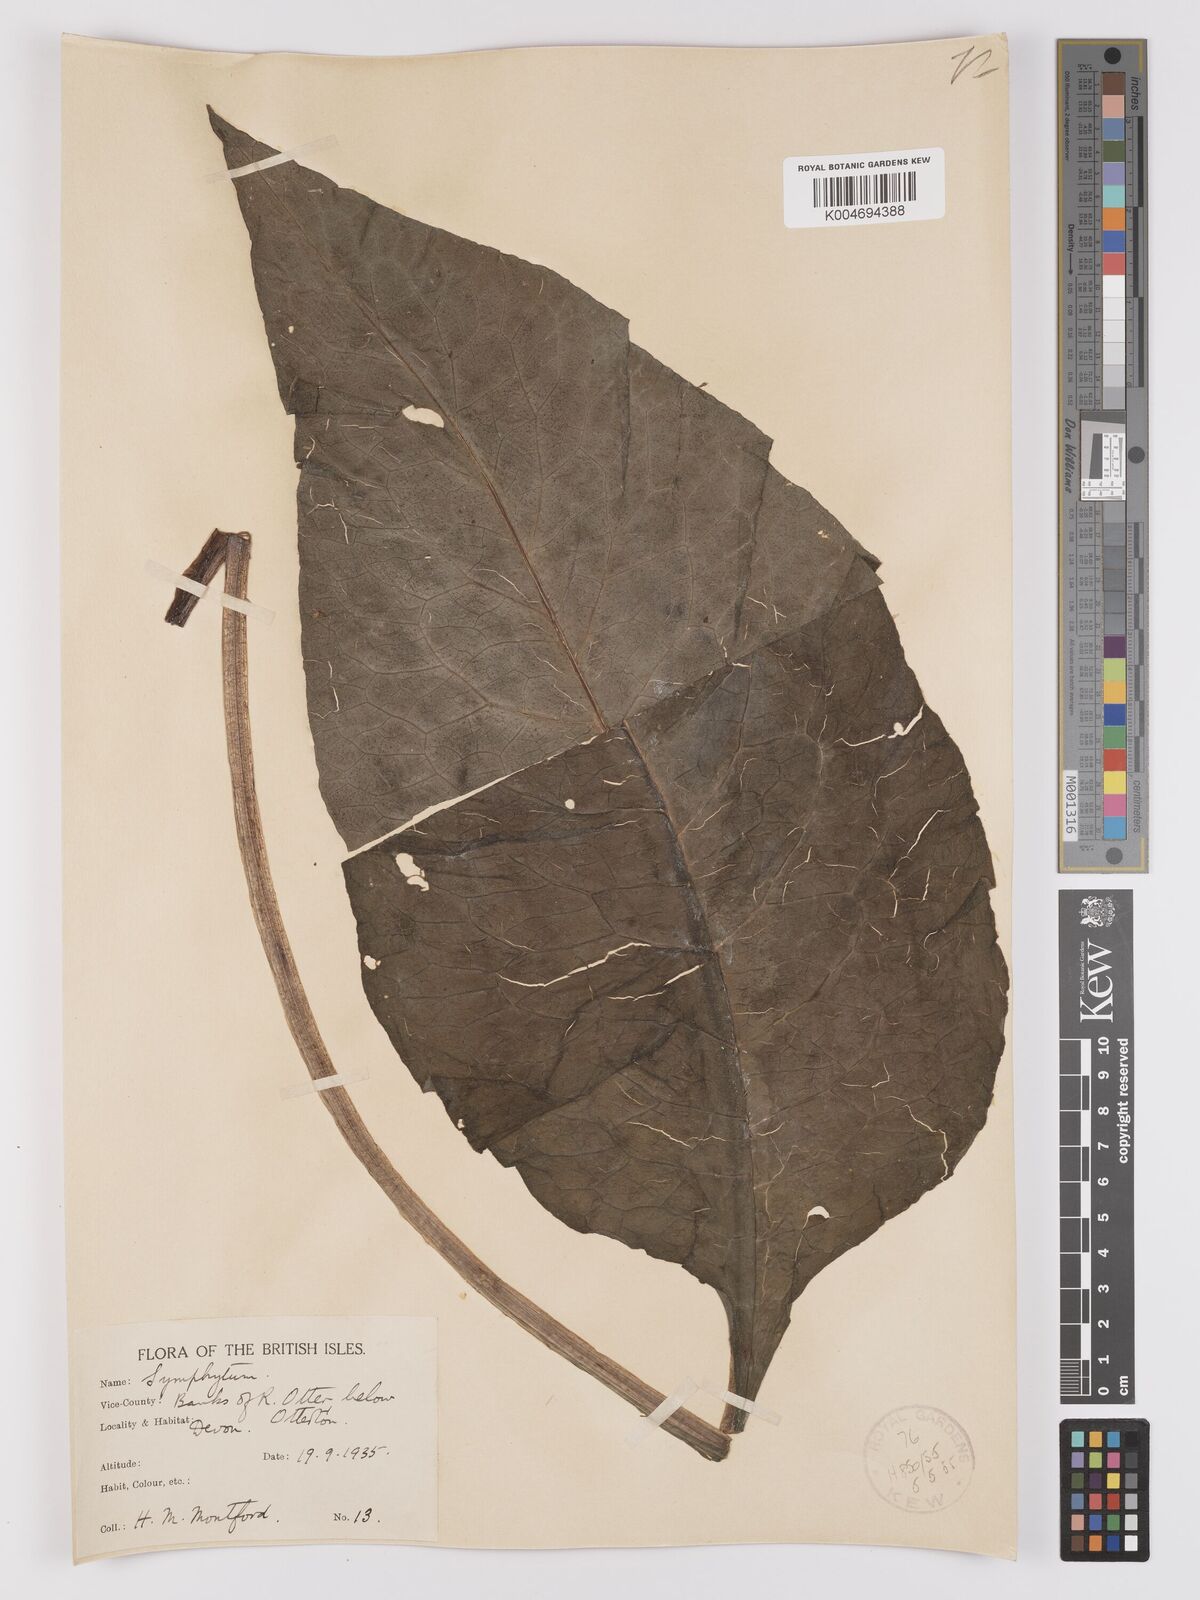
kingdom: Plantae
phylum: Tracheophyta
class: Magnoliopsida
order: Boraginales
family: Boraginaceae
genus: Symphytum
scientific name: Symphytum officinale
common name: Common comfrey
